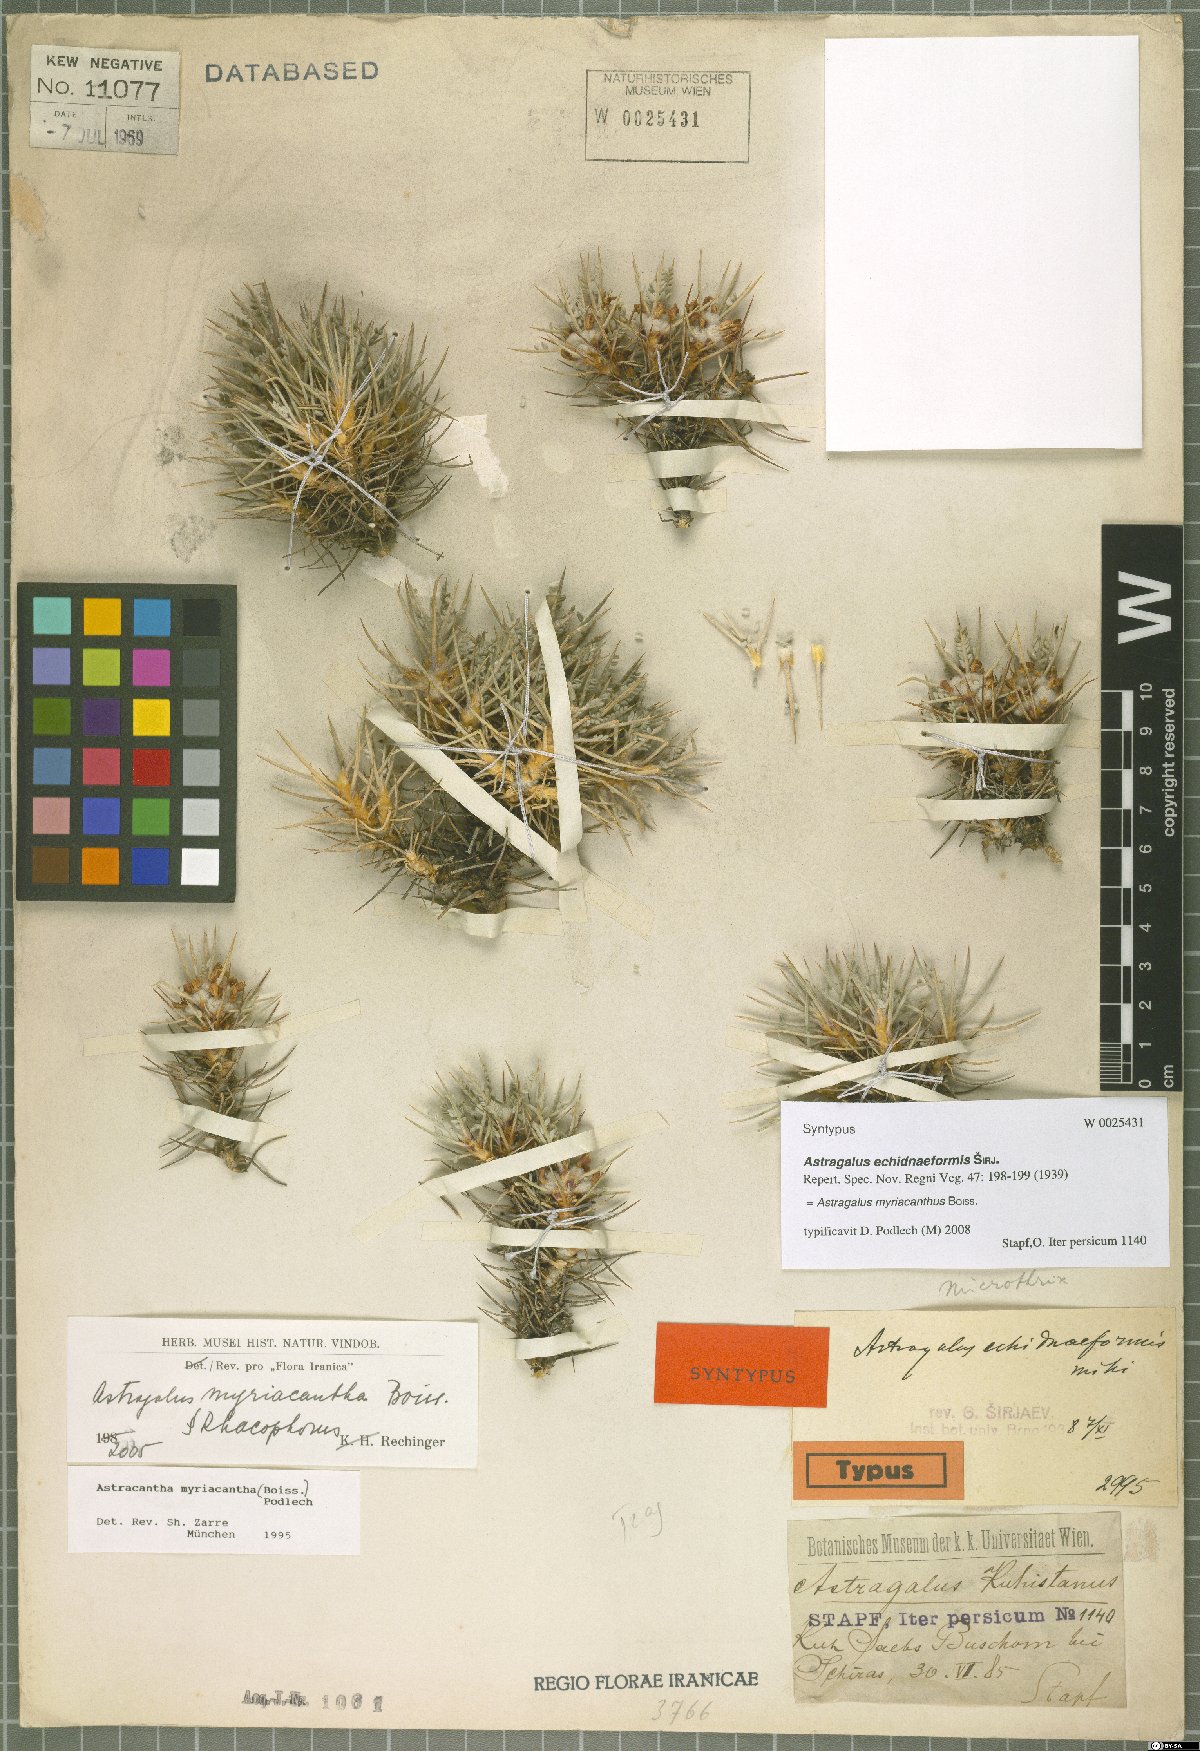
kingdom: Plantae
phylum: Tracheophyta
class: Magnoliopsida
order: Fabales
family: Fabaceae
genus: Astragalus
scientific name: Astragalus myriacanthus
